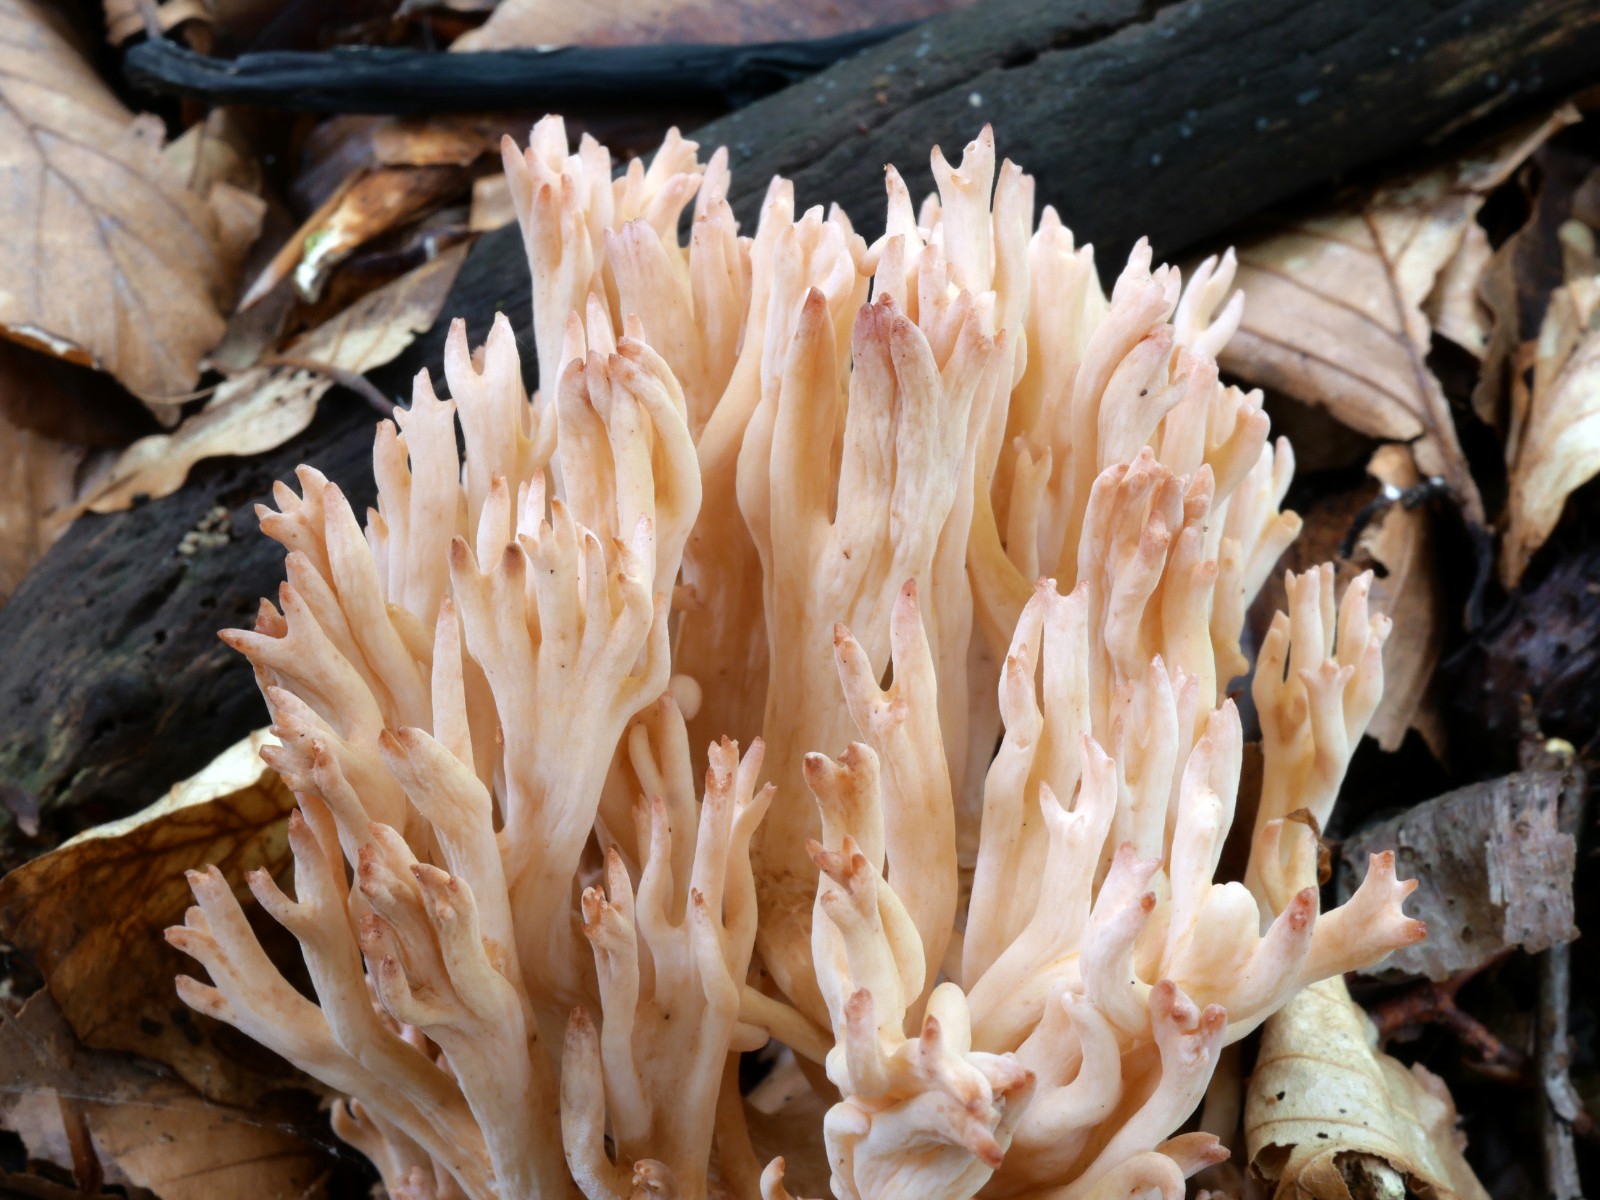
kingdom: Fungi
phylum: Basidiomycota
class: Agaricomycetes
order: Gomphales
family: Gomphaceae
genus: Ramaria
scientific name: Ramaria botrytis
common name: drue-koralsvamp
